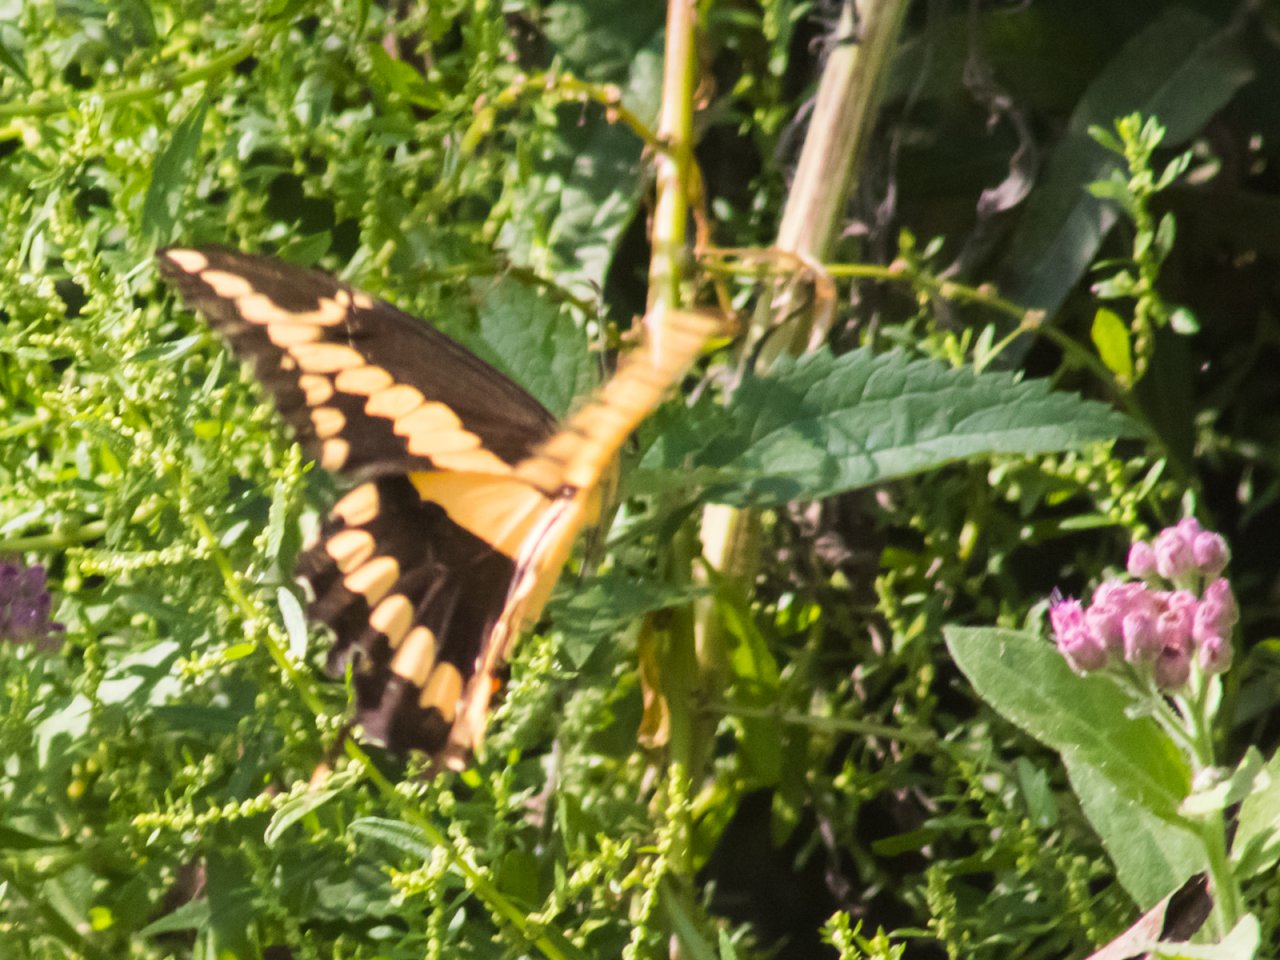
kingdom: Animalia
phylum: Arthropoda
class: Insecta
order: Lepidoptera
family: Papilionidae
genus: Papilio
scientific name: Papilio rumiko
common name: Western Giant Swallowtail
